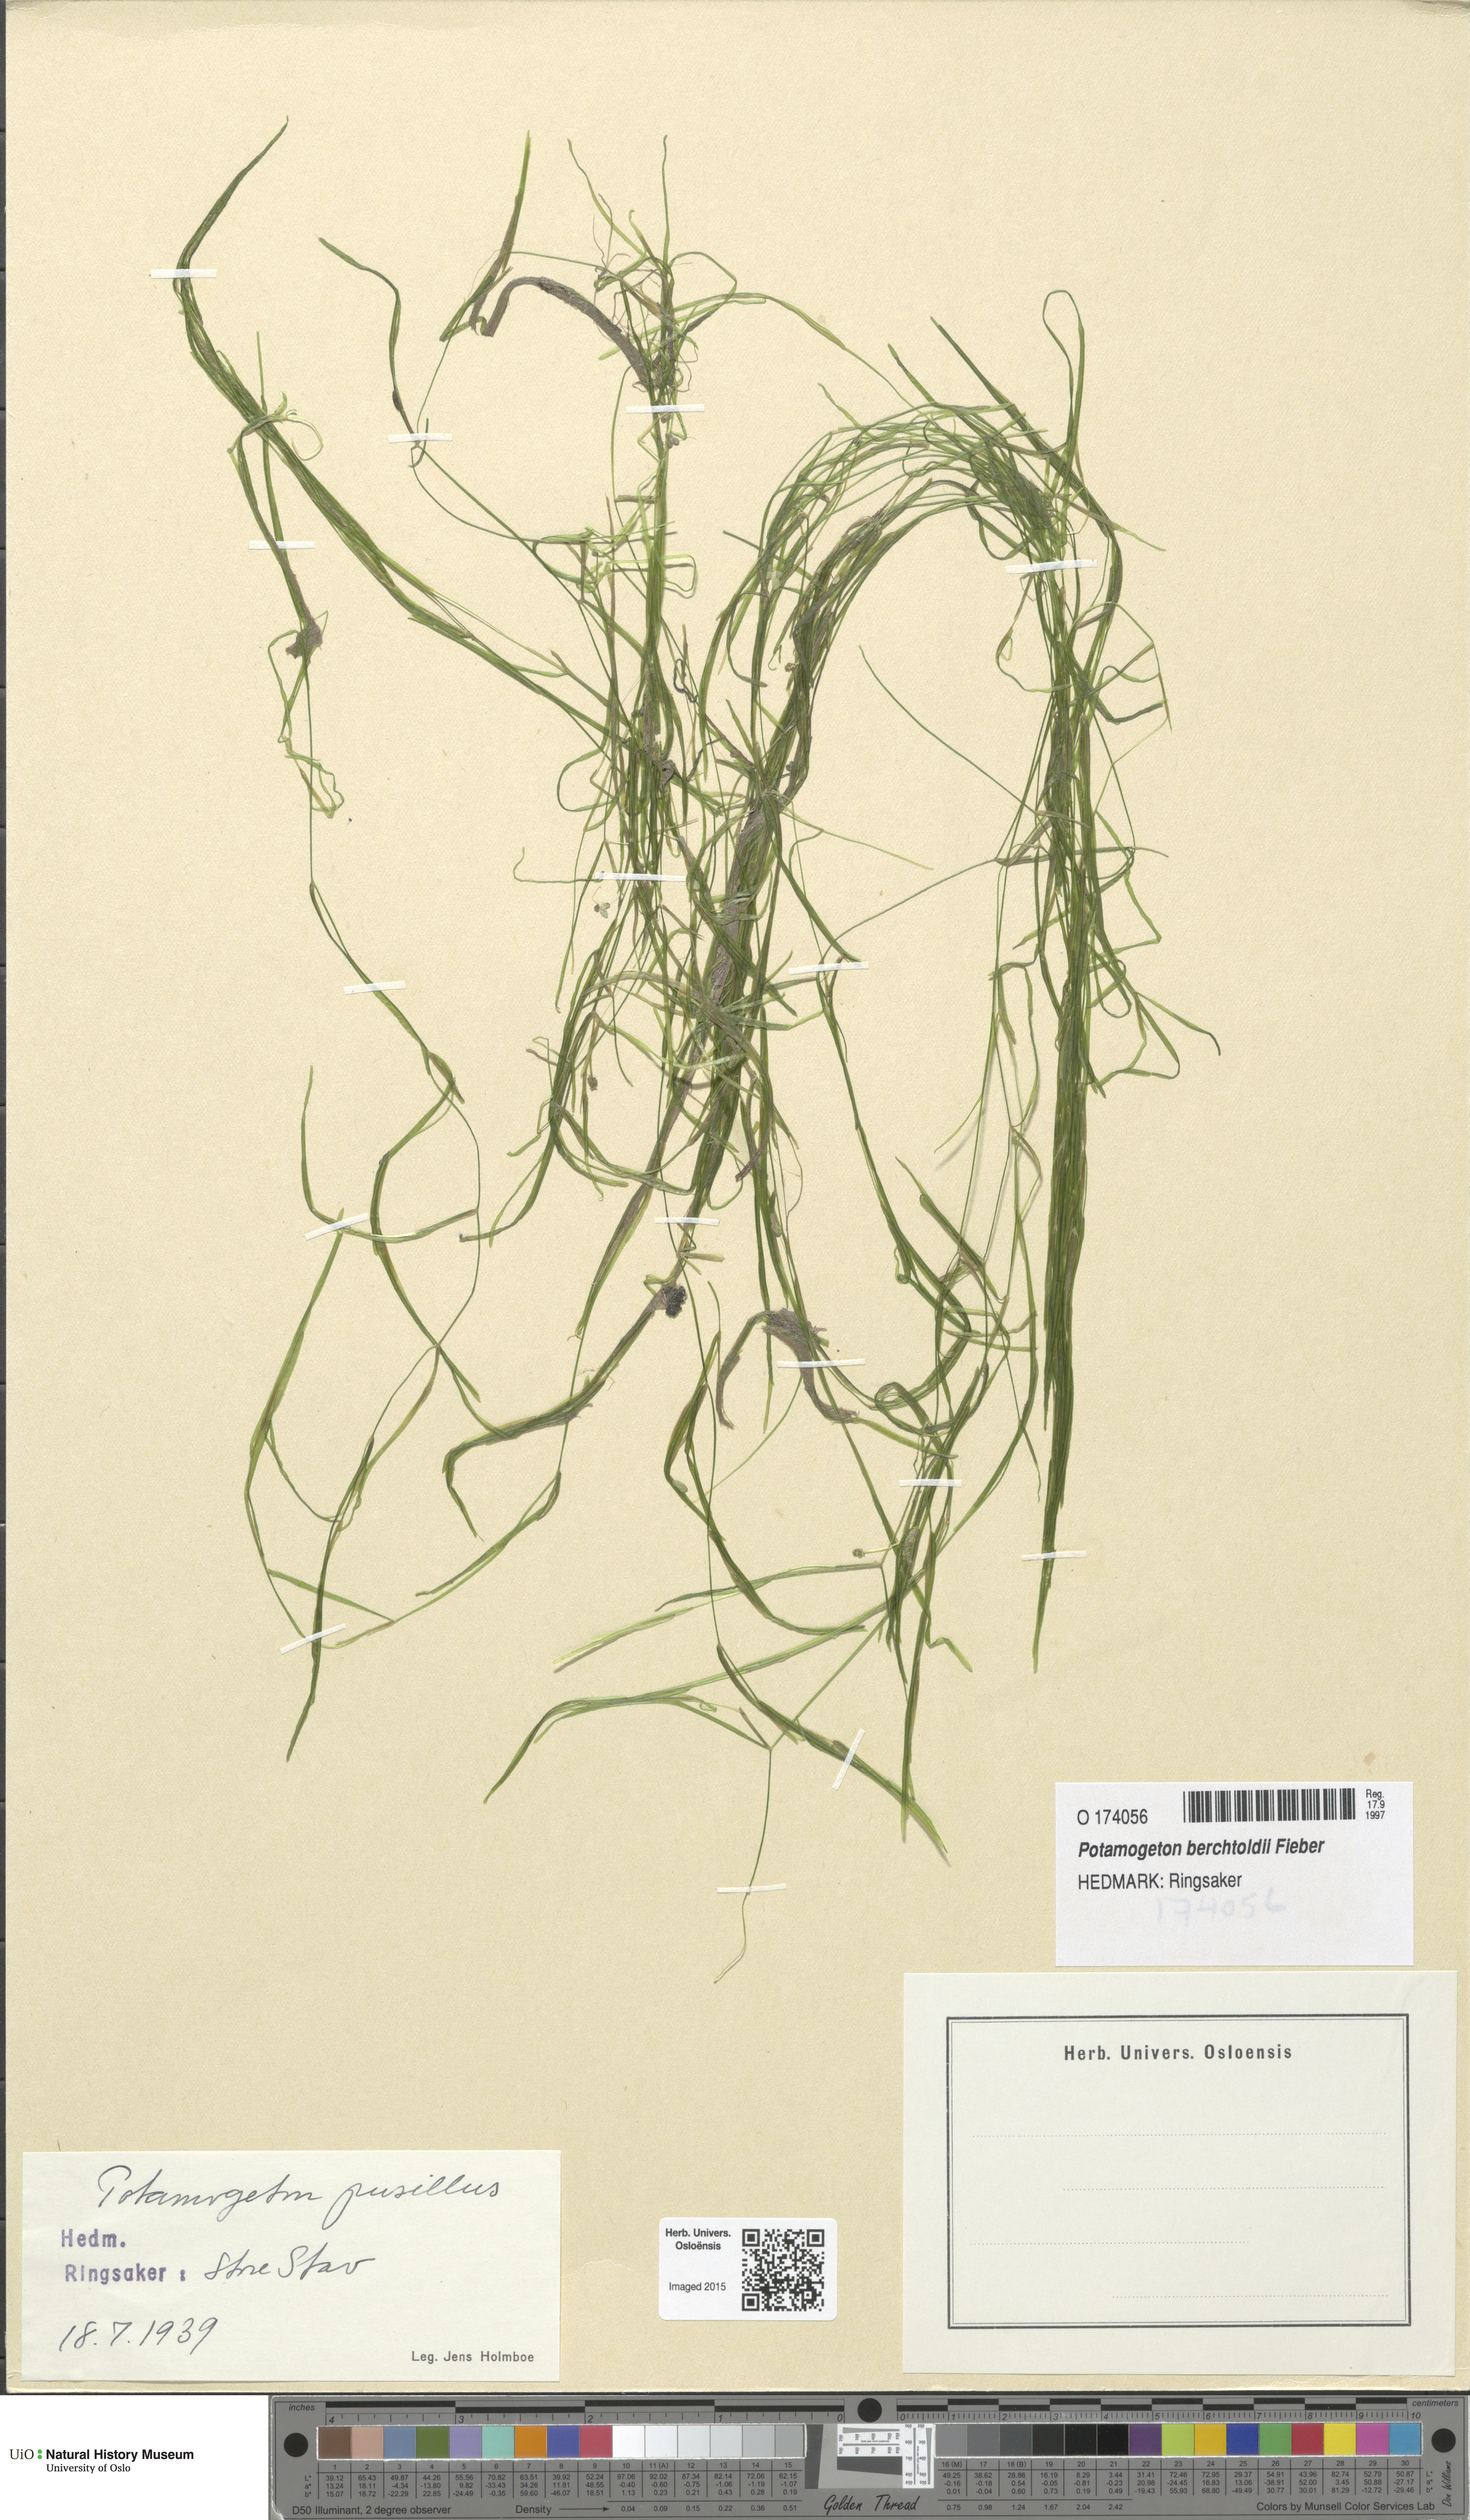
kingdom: Plantae
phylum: Tracheophyta
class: Liliopsida
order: Alismatales
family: Potamogetonaceae
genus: Potamogeton
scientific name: Potamogeton berchtoldii
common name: Small pondweed
